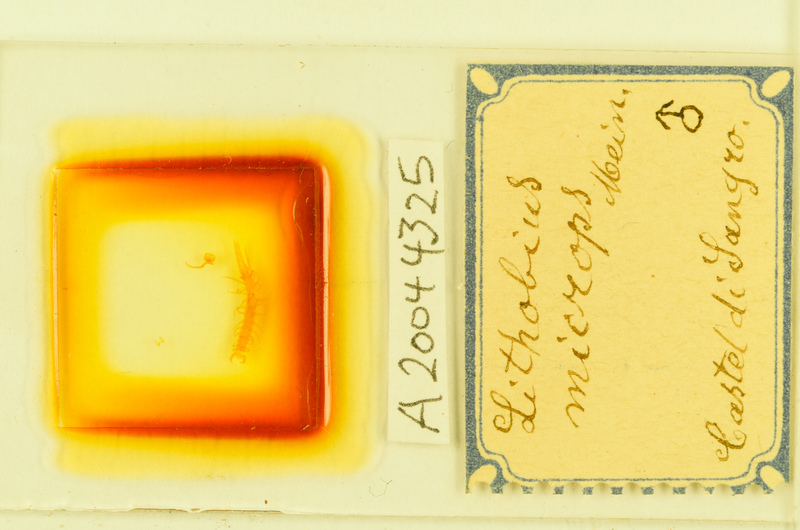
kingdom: Animalia
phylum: Arthropoda
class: Chilopoda
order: Lithobiomorpha
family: Lithobiidae
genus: Lithobius
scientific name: Lithobius microps
